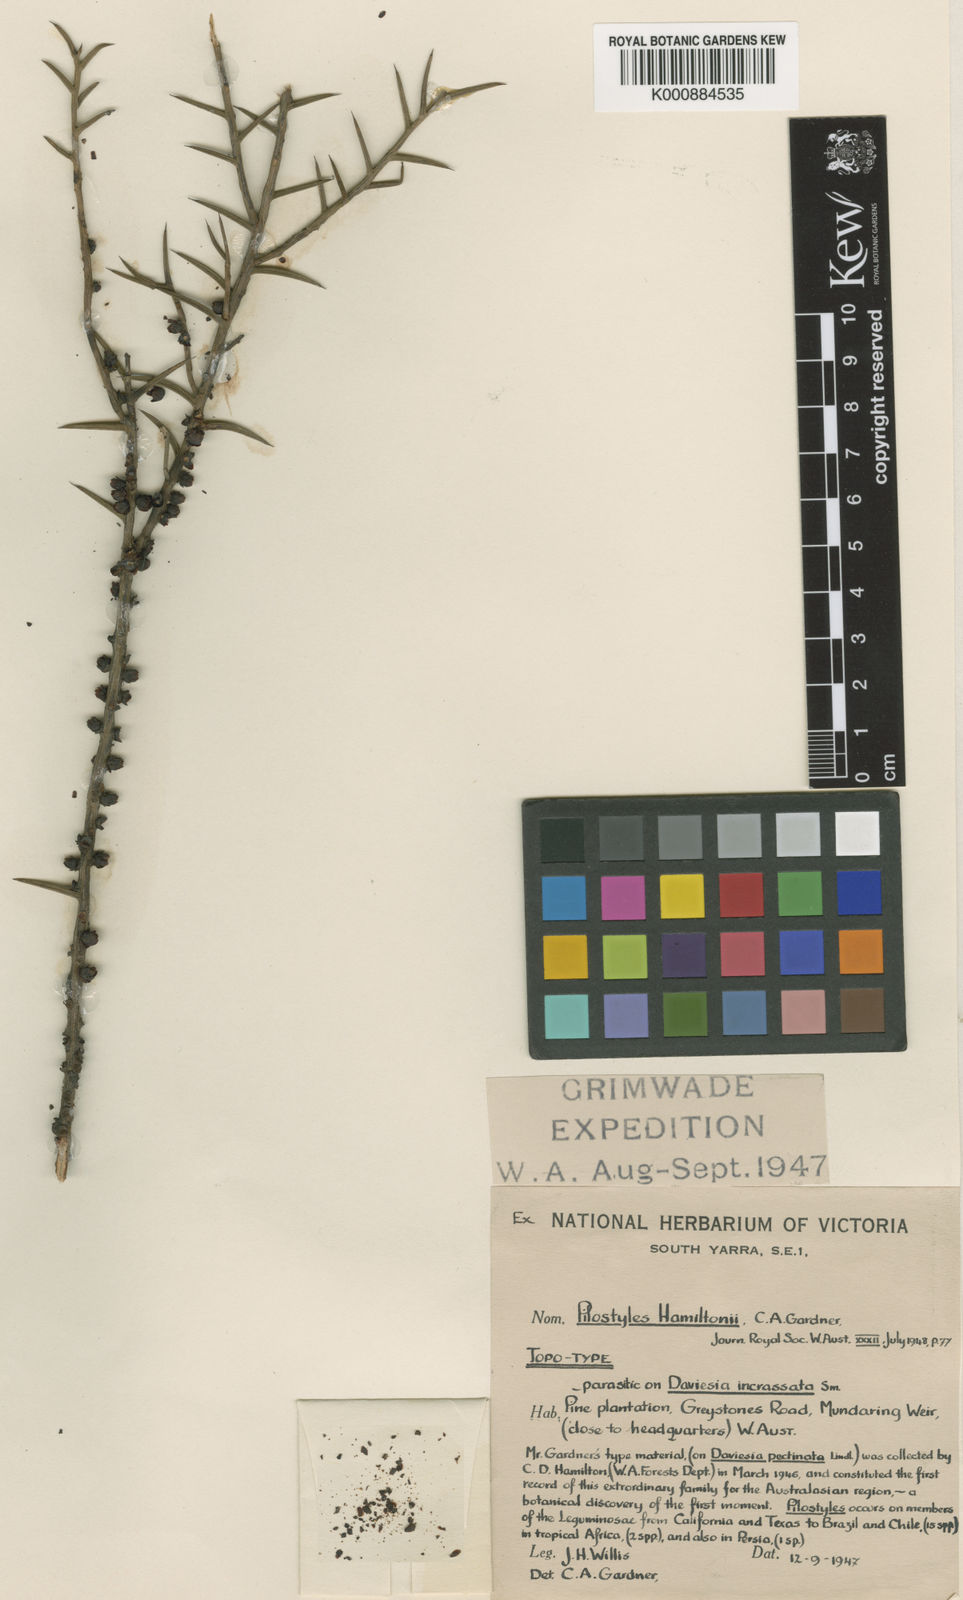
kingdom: Plantae
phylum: Tracheophyta
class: Magnoliopsida
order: Cucurbitales
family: Apodanthaceae
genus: Pilostyles
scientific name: Pilostyles hamiltonii
